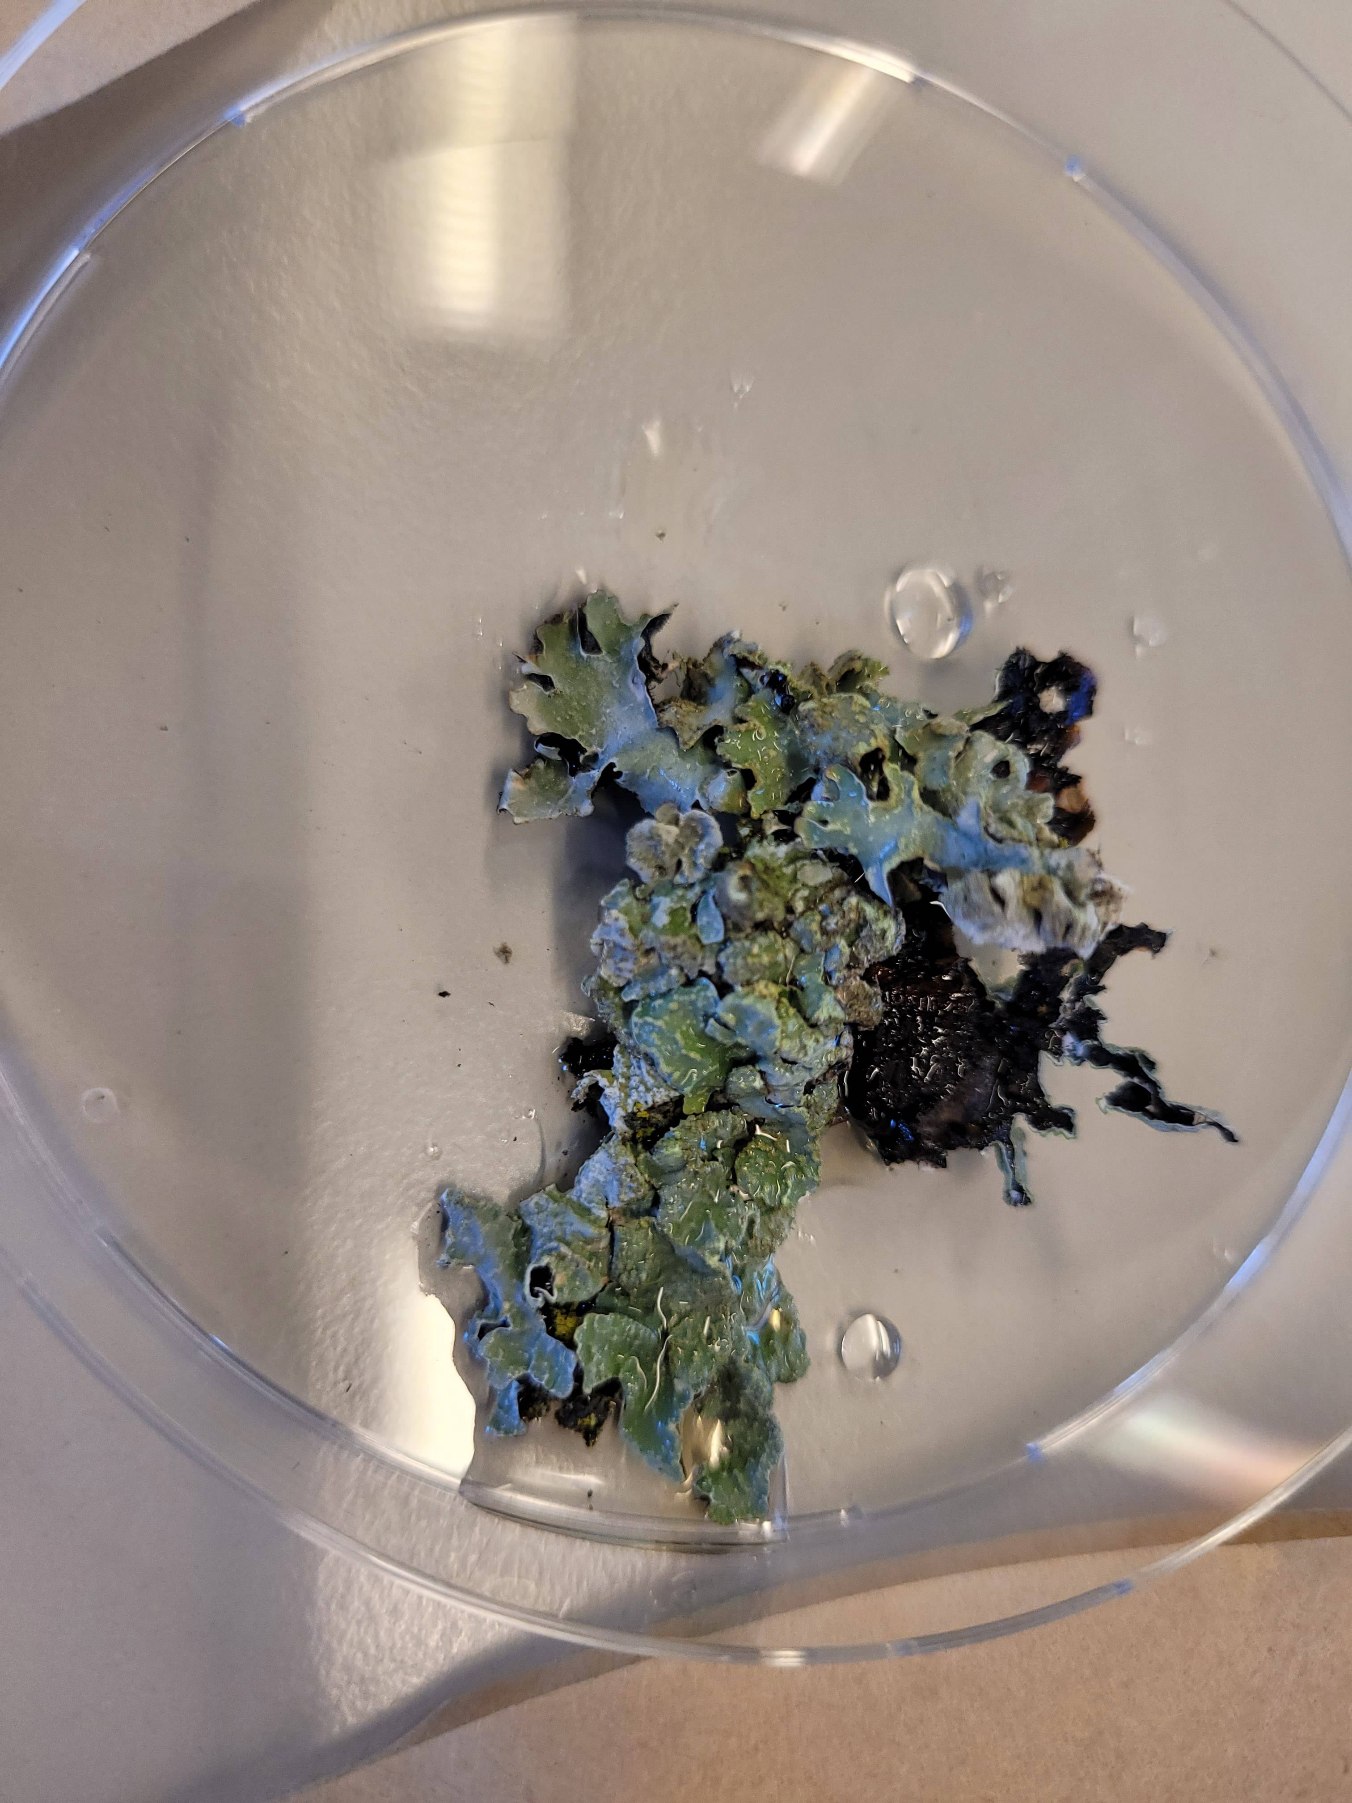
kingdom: Fungi
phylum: Ascomycota
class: Lecanoromycetes
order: Lecanorales
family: Parmeliaceae
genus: Parmelia
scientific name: Parmelia sulcata
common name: Rynket skållav
